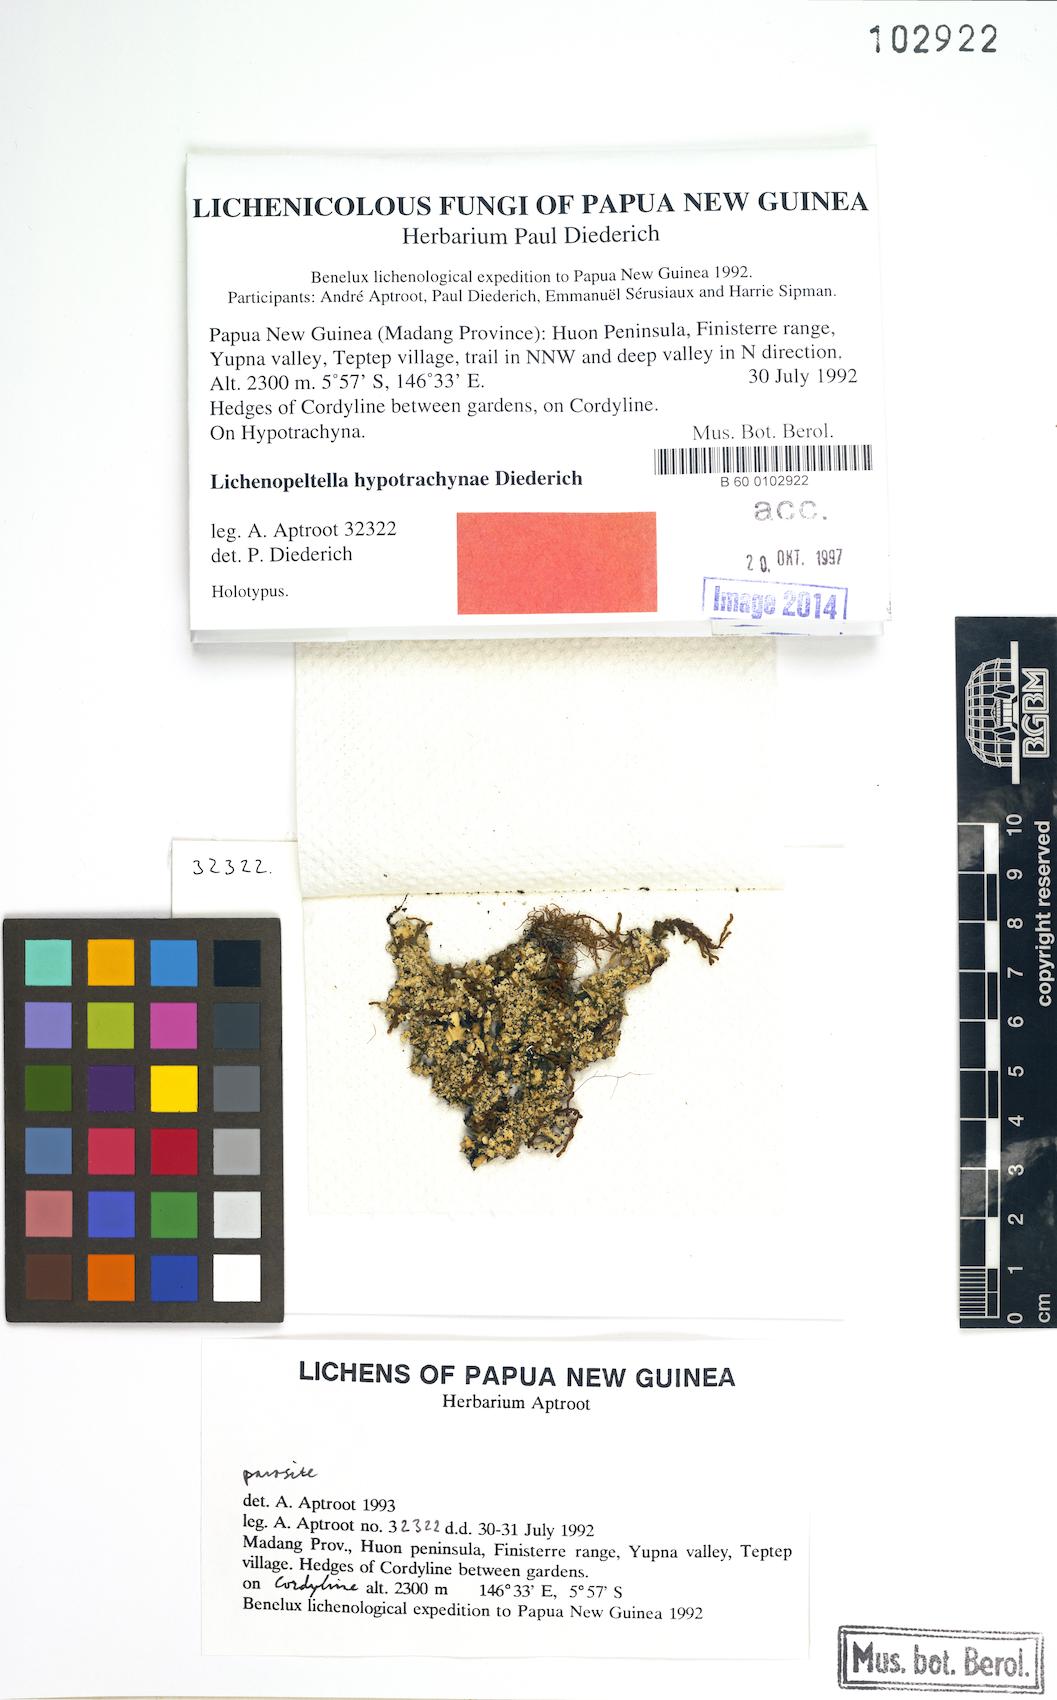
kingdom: Fungi
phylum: Ascomycota
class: Dothideomycetes
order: Microthyriales
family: Microthyriaceae
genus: Lichenopeltella
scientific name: Lichenopeltella hypotrachynae
